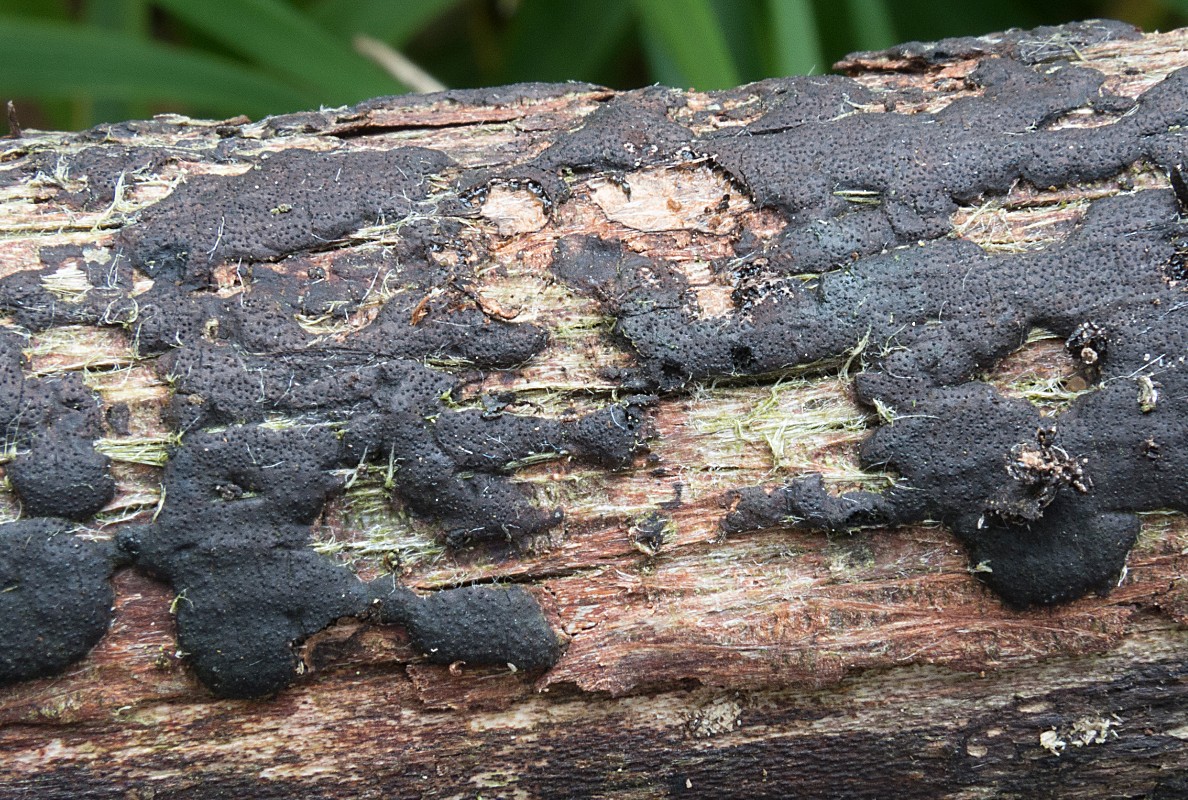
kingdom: Fungi
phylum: Ascomycota
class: Sordariomycetes
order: Xylariales
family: Diatrypaceae
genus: Diatrype
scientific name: Diatrype
